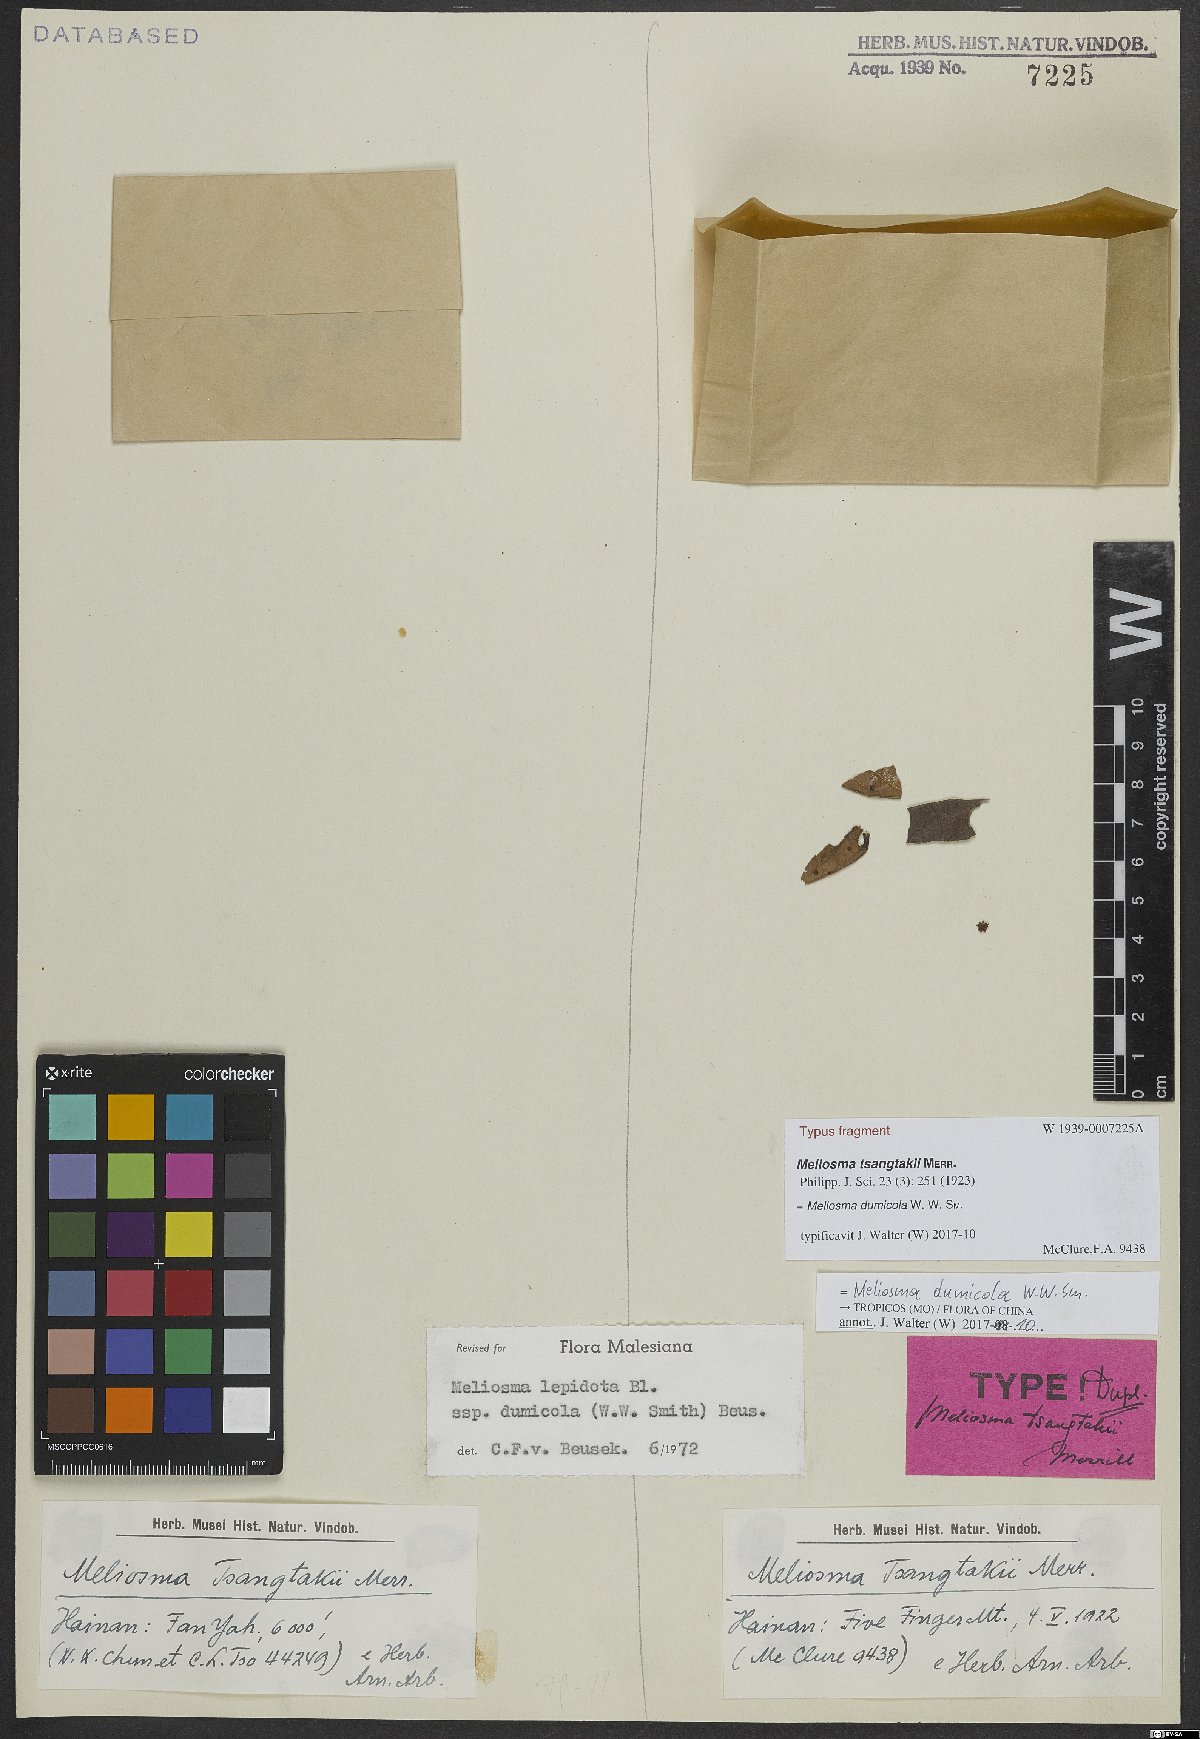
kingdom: Plantae
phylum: Tracheophyta
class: Magnoliopsida
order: Proteales
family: Sabiaceae
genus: Meliosma
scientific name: Meliosma dumicola
